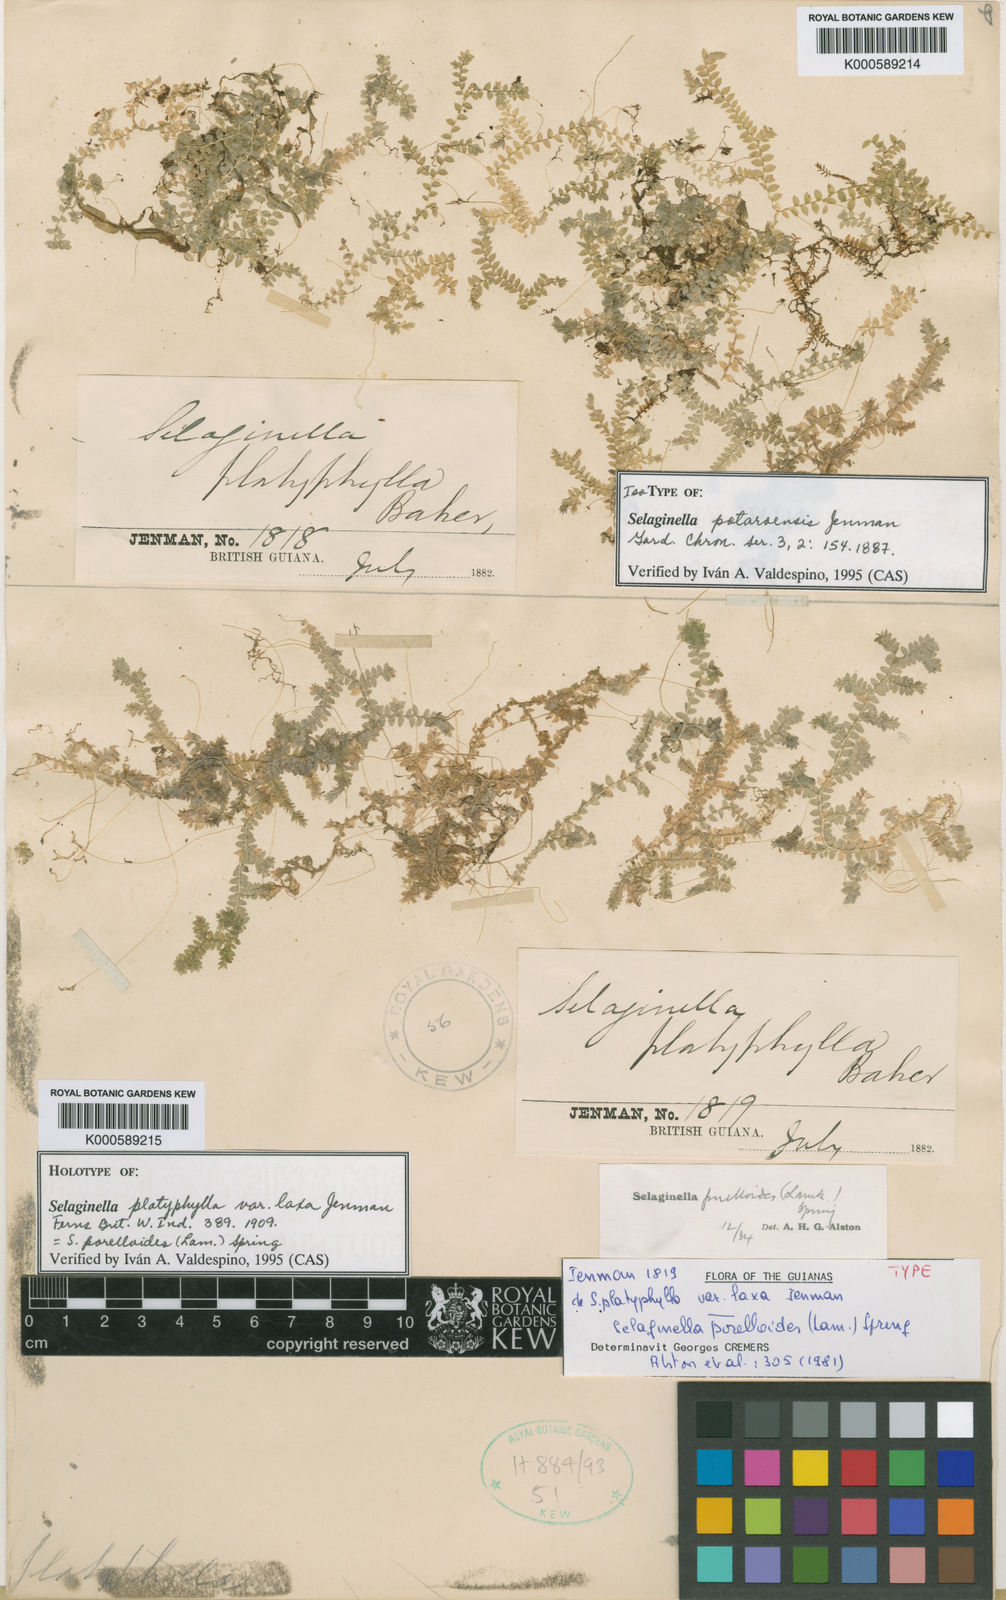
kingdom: Plantae
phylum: Tracheophyta
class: Lycopodiopsida
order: Selaginellales
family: Selaginellaceae
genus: Selaginella
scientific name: Selaginella porelloides
